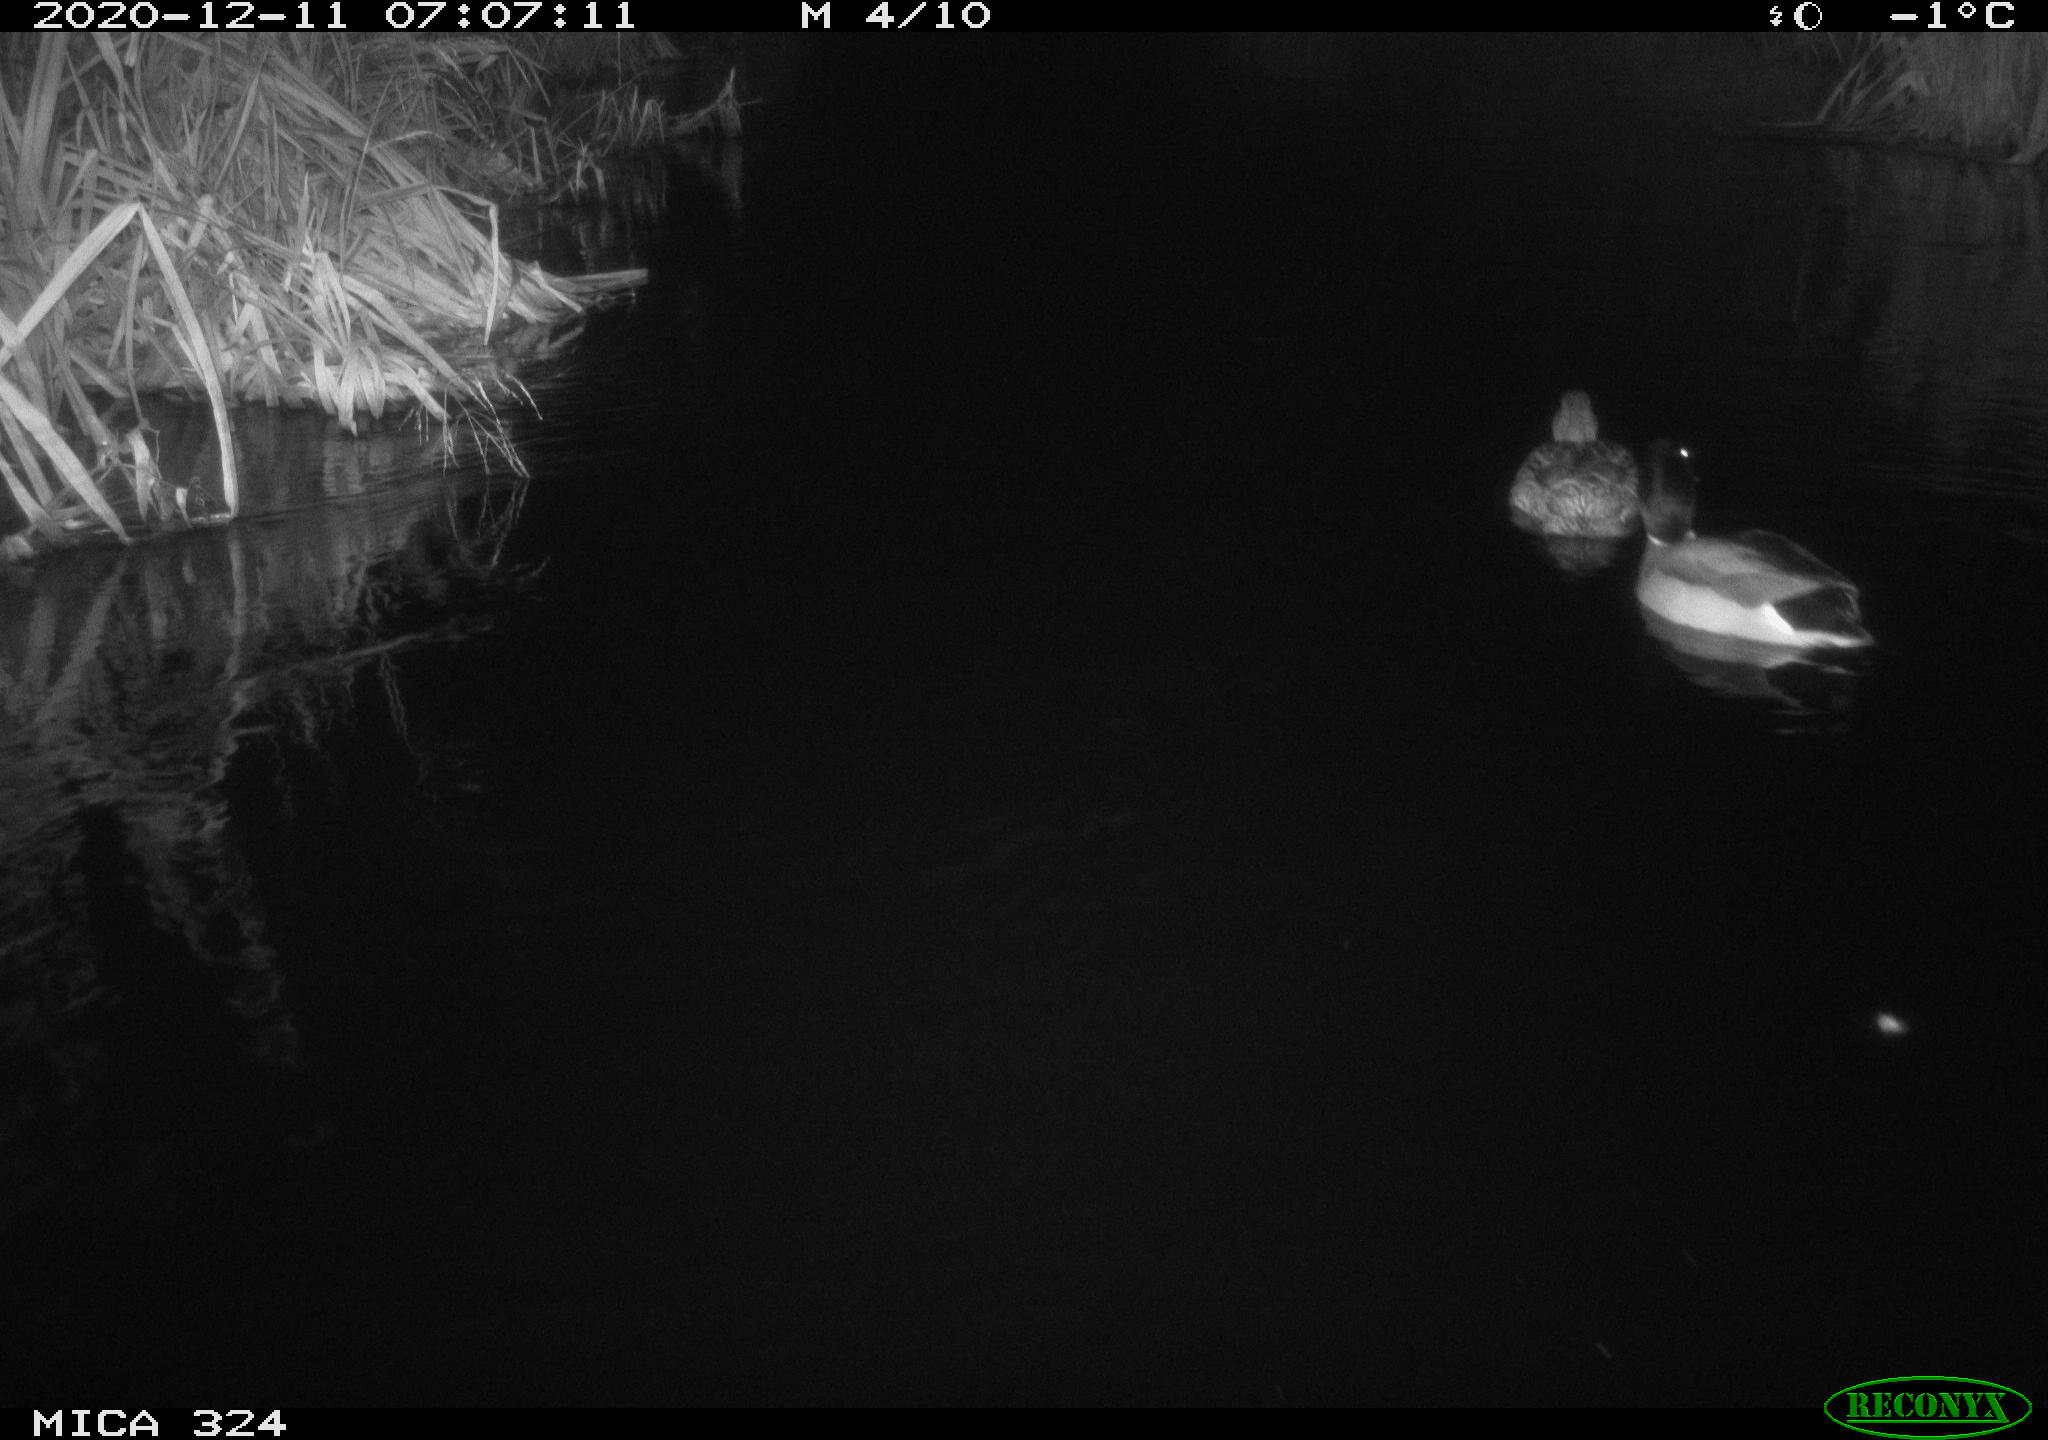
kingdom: Animalia
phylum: Chordata
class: Aves
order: Anseriformes
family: Anatidae
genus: Anas
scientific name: Anas platyrhynchos
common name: Mallard
